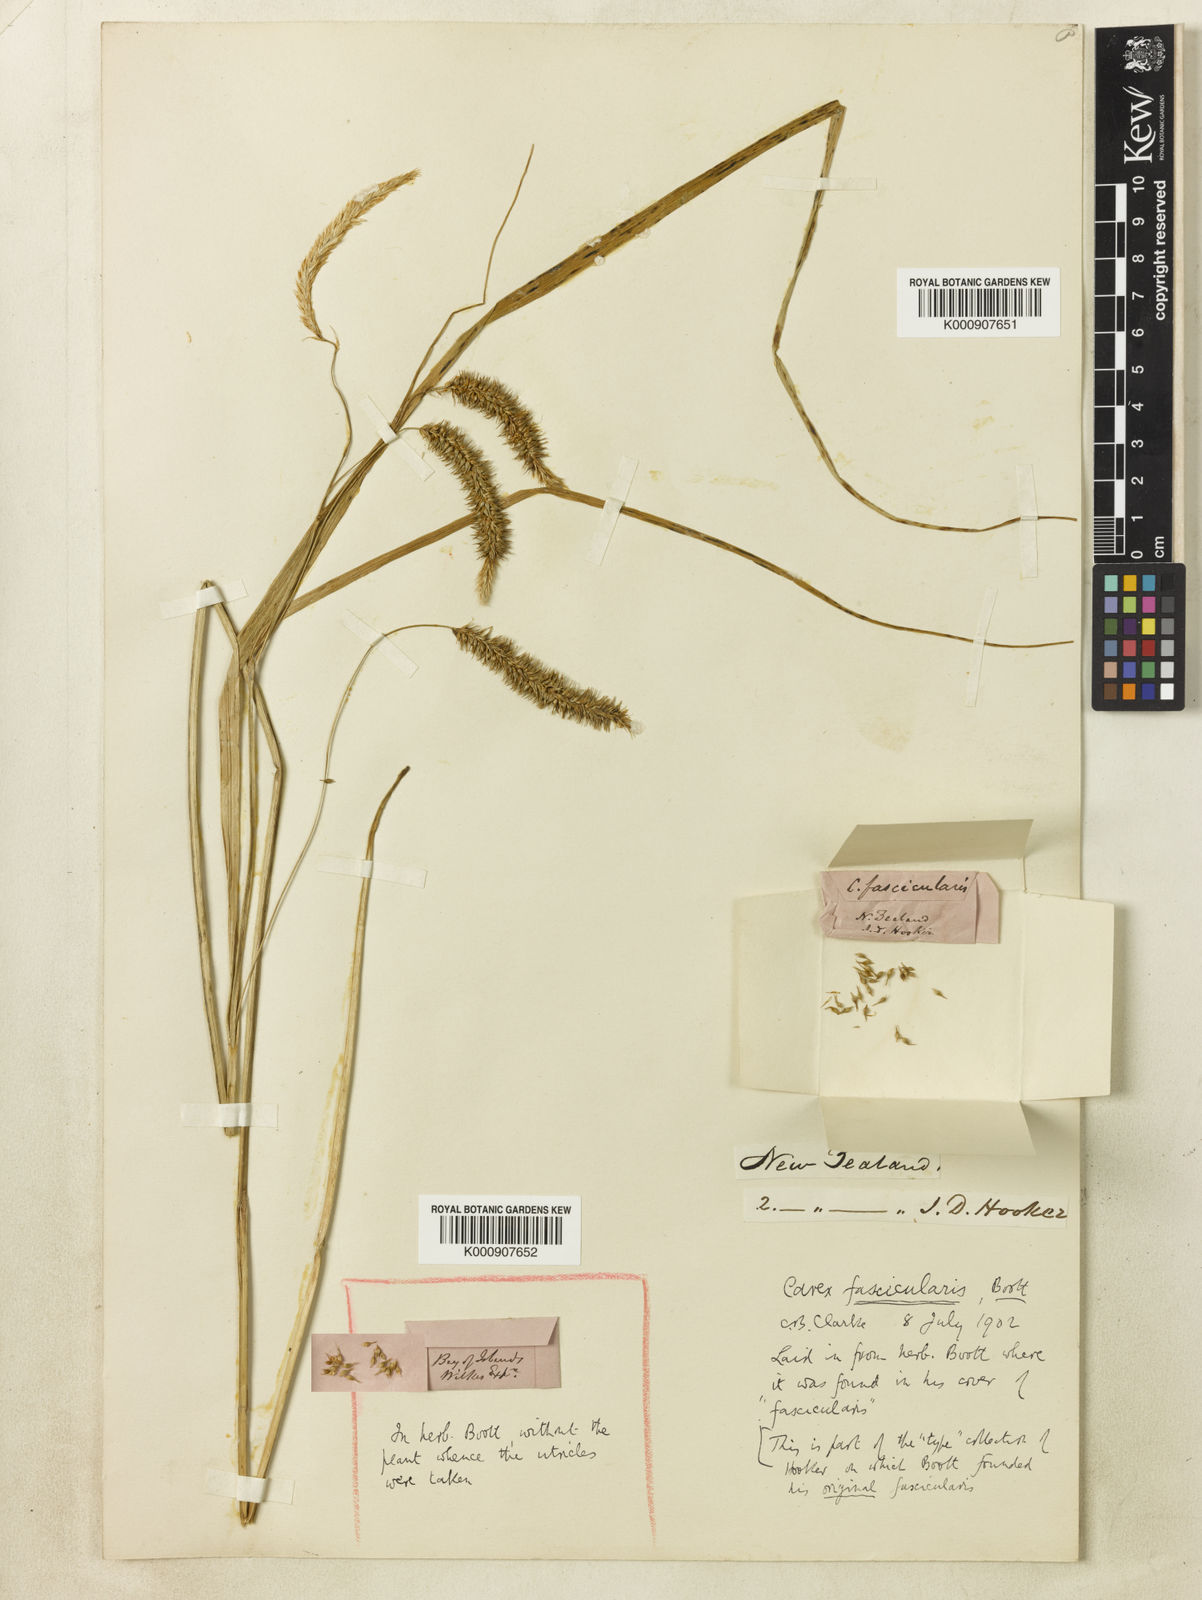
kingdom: Plantae
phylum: Tracheophyta
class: Liliopsida
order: Poales
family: Cyperaceae
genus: Carex
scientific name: Carex fascicularis
